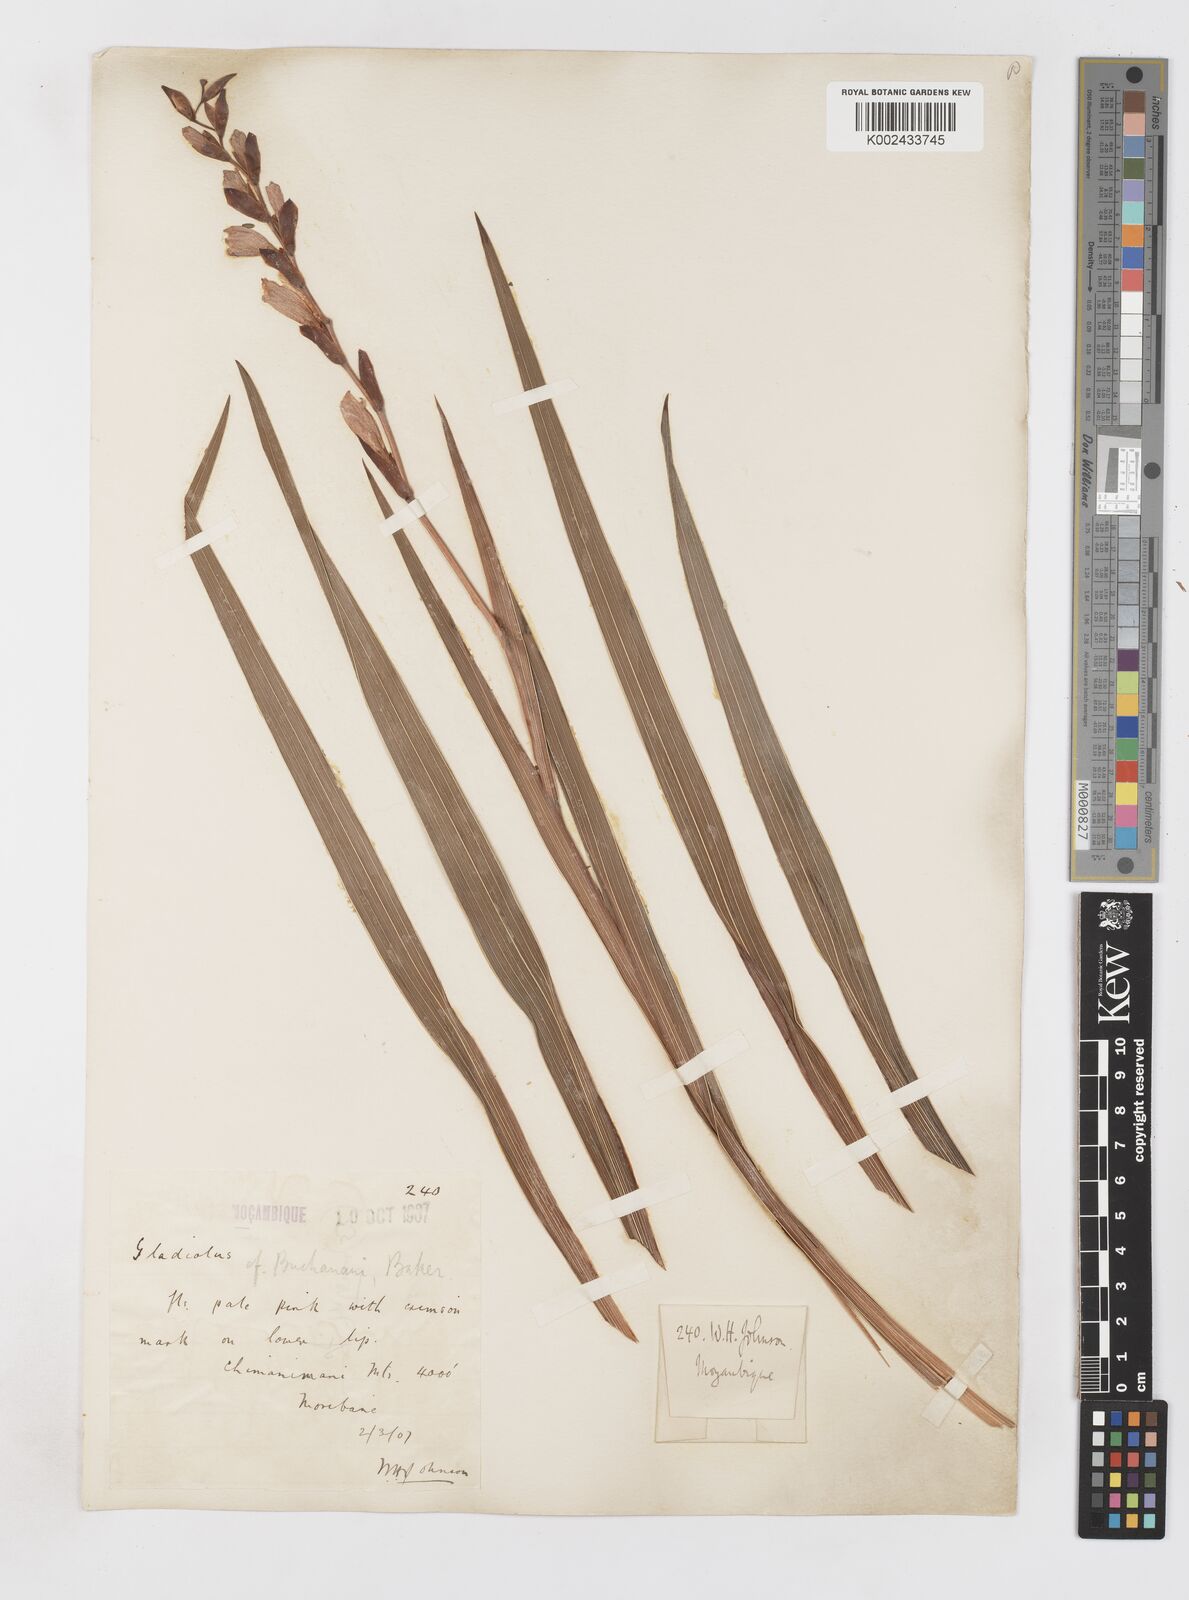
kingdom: Plantae
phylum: Tracheophyta
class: Liliopsida
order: Asparagales
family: Iridaceae
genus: Gladiolus
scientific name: Gladiolus crassifolius
